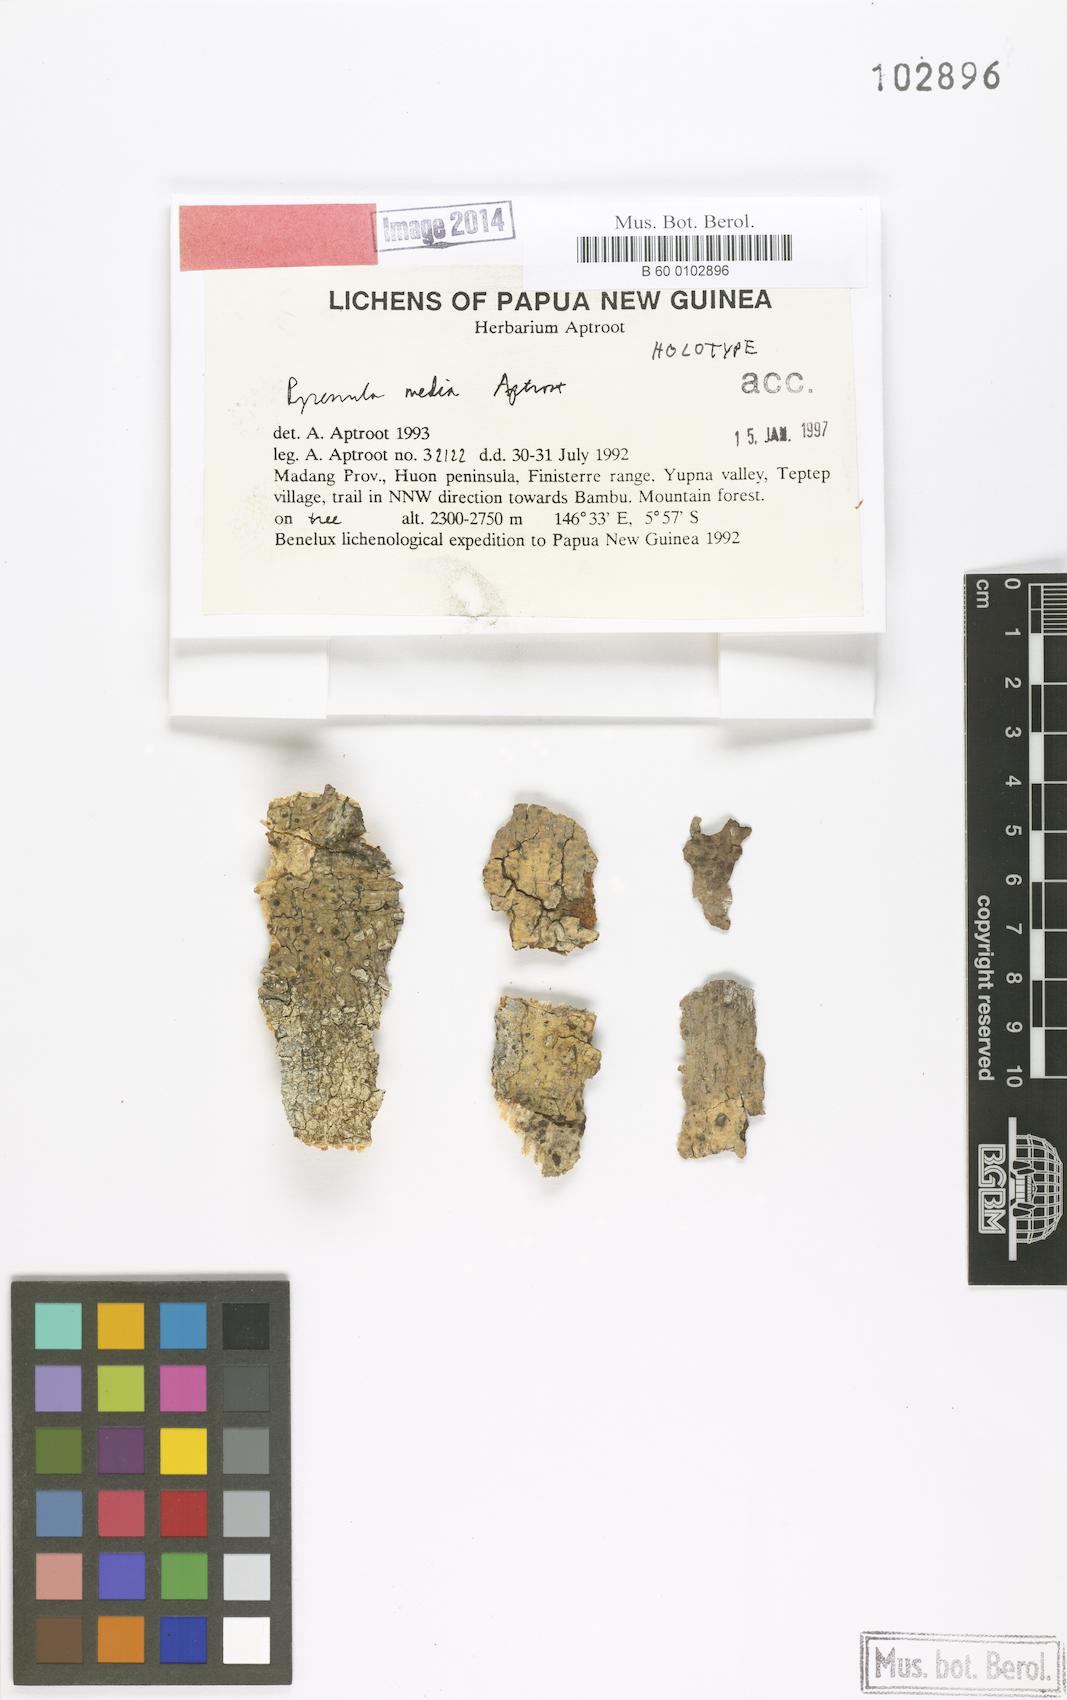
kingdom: Fungi
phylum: Ascomycota
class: Eurotiomycetes
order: Pyrenulales
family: Pyrenulaceae
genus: Pyrenula
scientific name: Pyrenula
